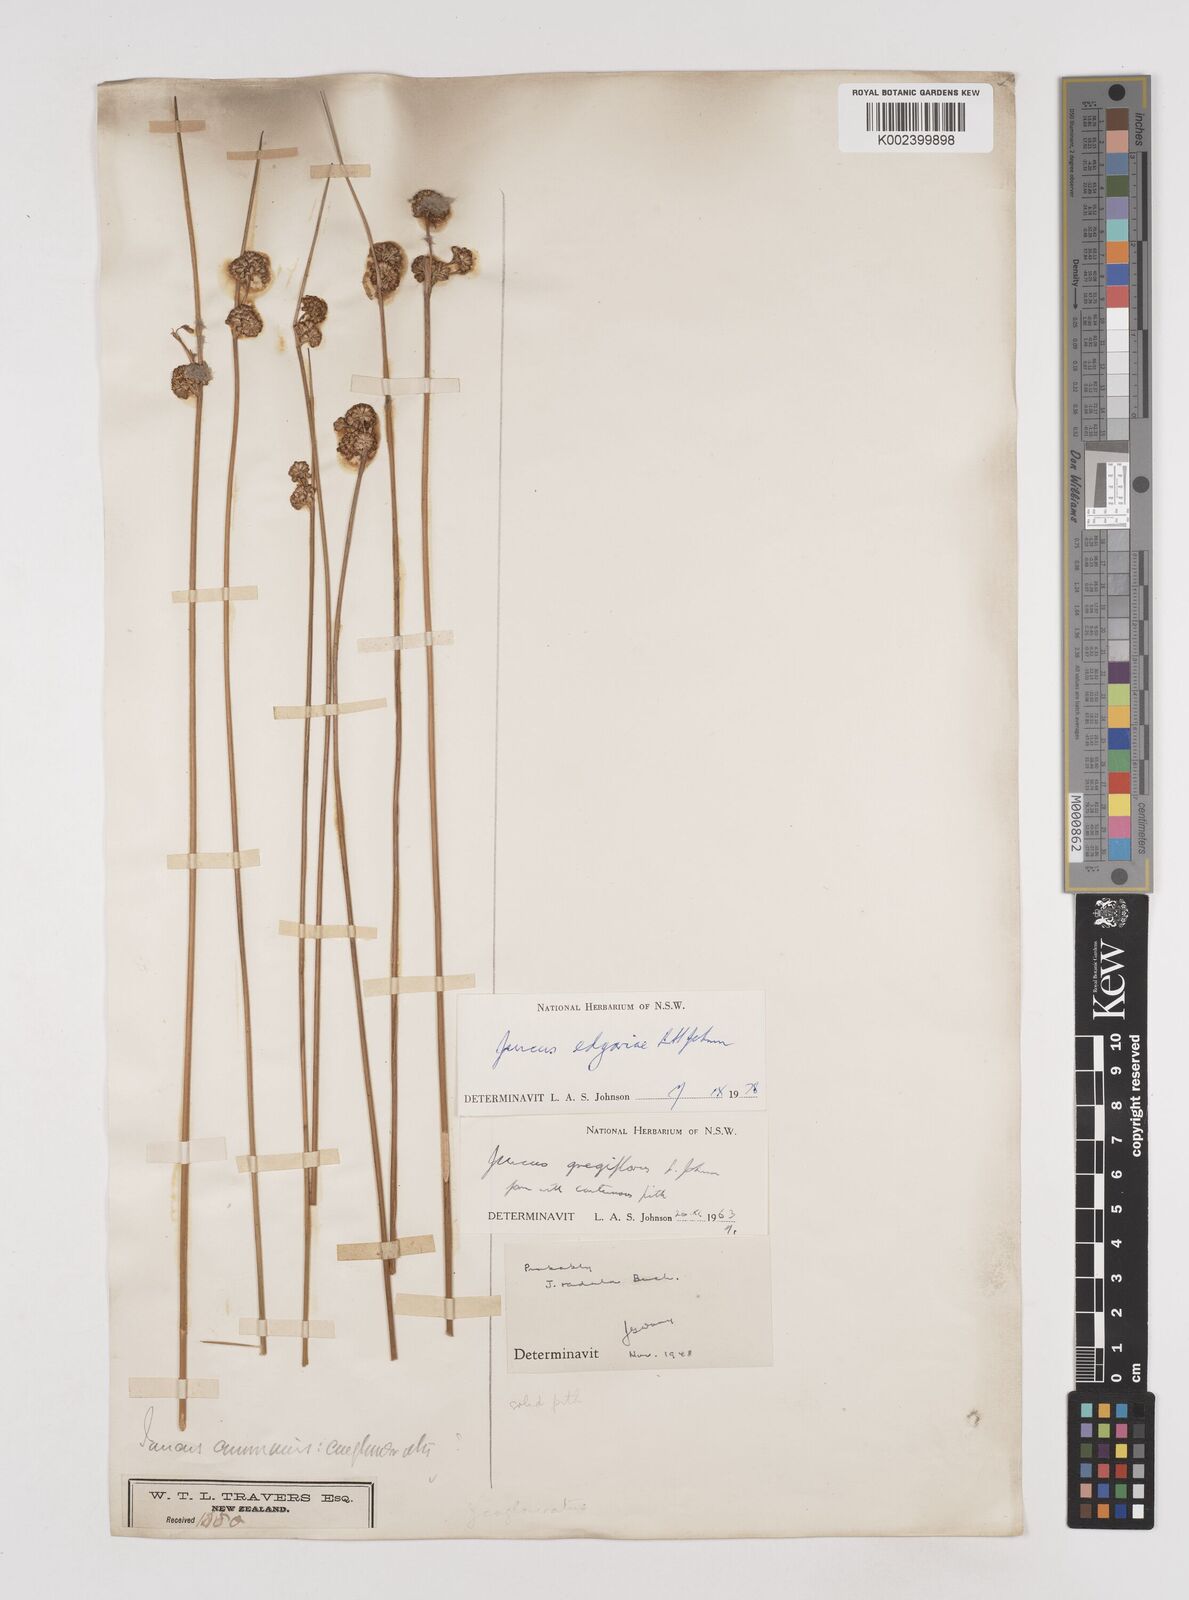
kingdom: Plantae
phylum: Tracheophyta
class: Liliopsida
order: Poales
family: Juncaceae
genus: Juncus
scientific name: Juncus edgariae
